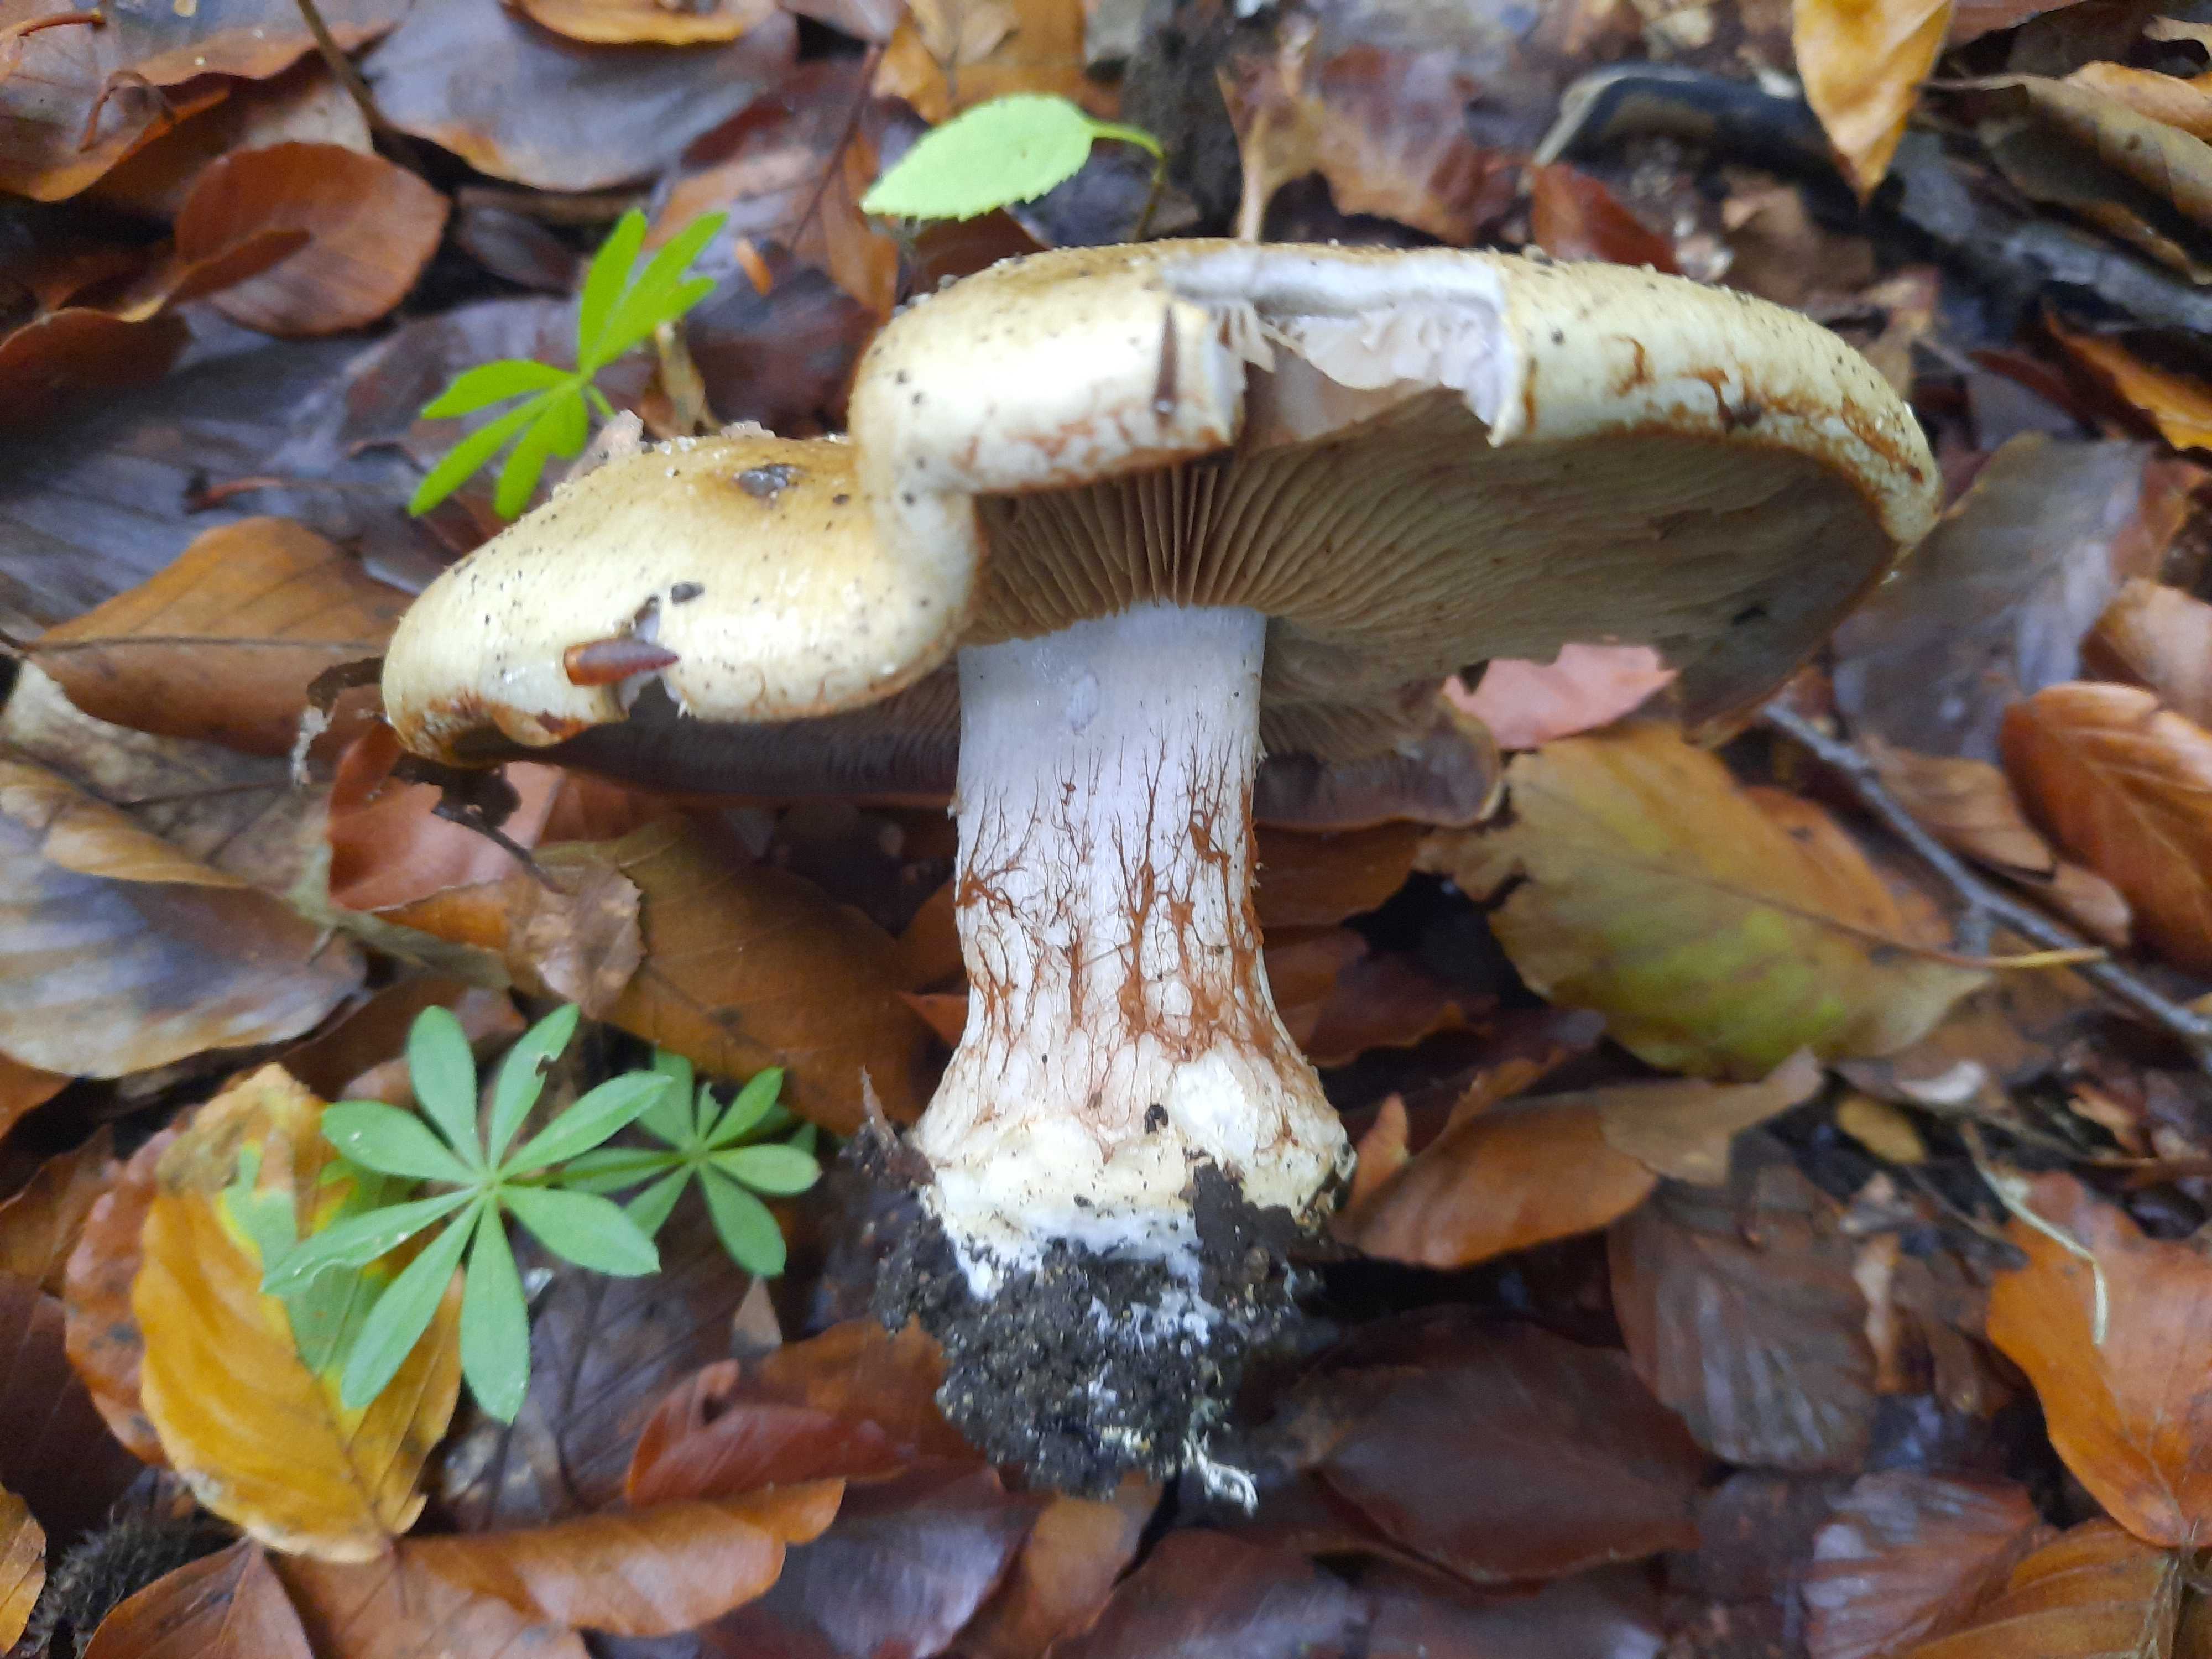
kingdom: Fungi
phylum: Basidiomycota
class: Agaricomycetes
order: Agaricales
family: Cortinariaceae
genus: Cortinarius
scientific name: Cortinarius anserinus
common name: bøge-slørhat
